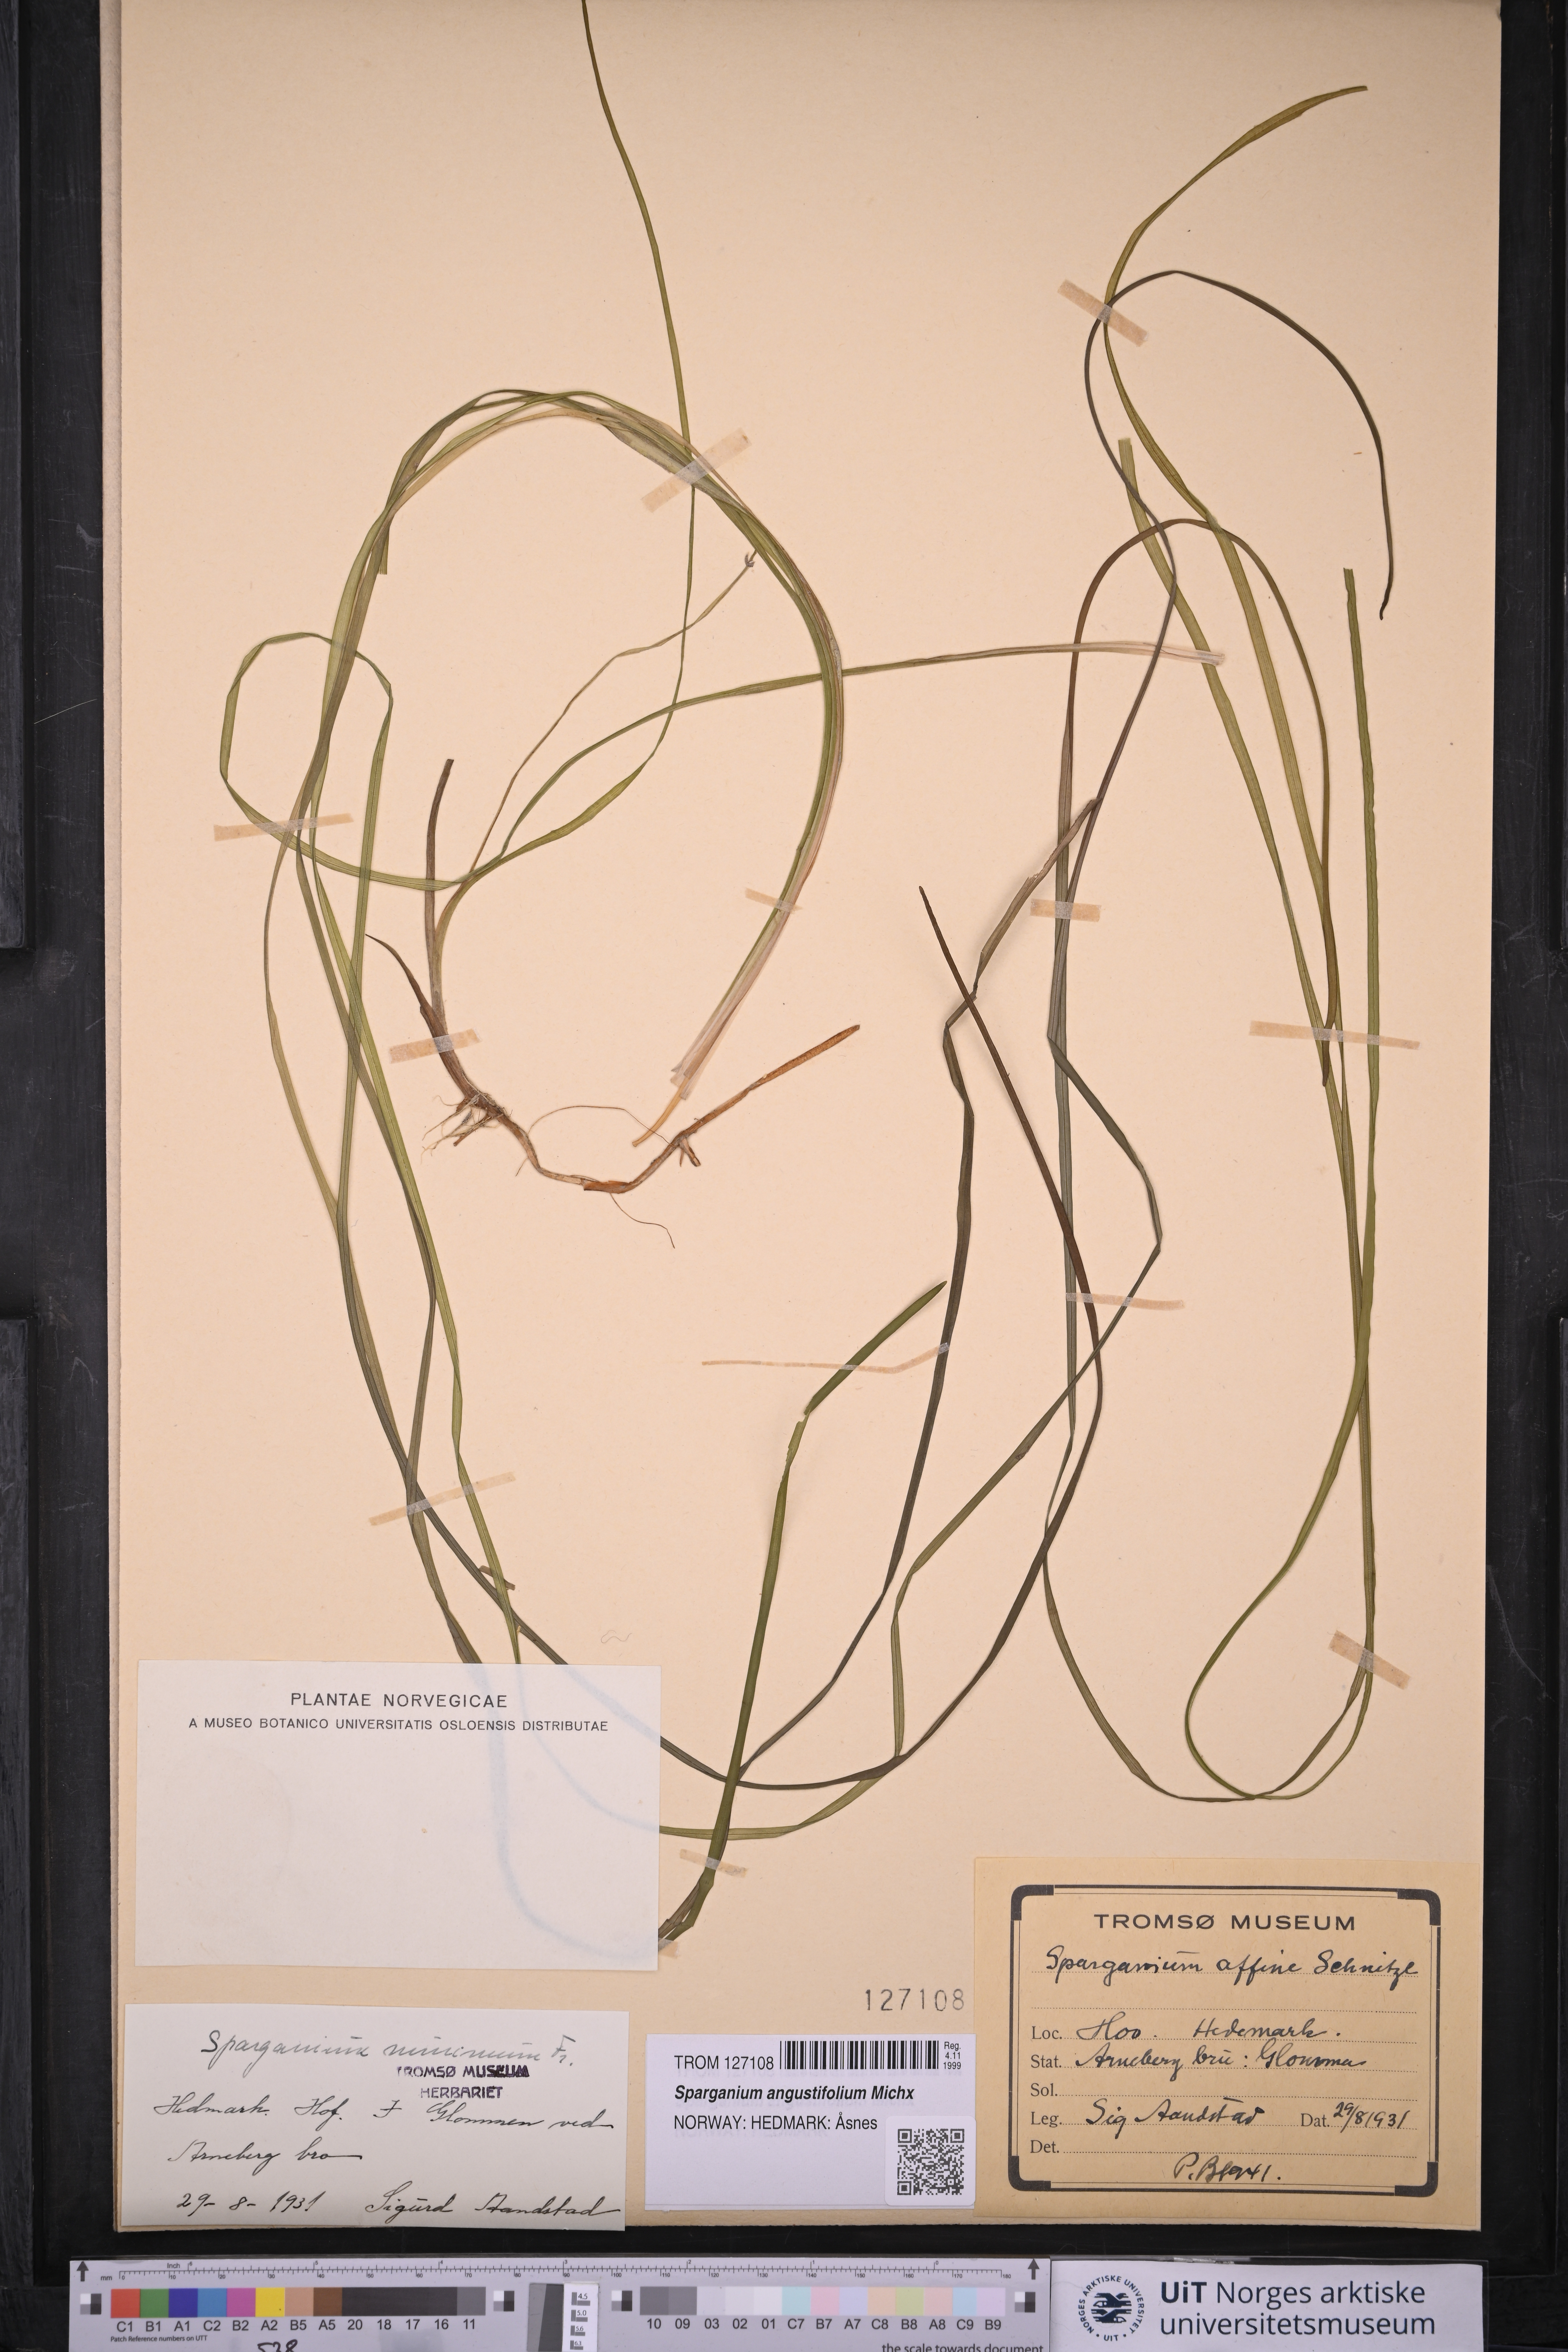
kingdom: Plantae
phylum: Tracheophyta
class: Liliopsida
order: Poales
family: Typhaceae
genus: Sparganium
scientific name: Sparganium angustifolium
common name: Floating bur-reed
